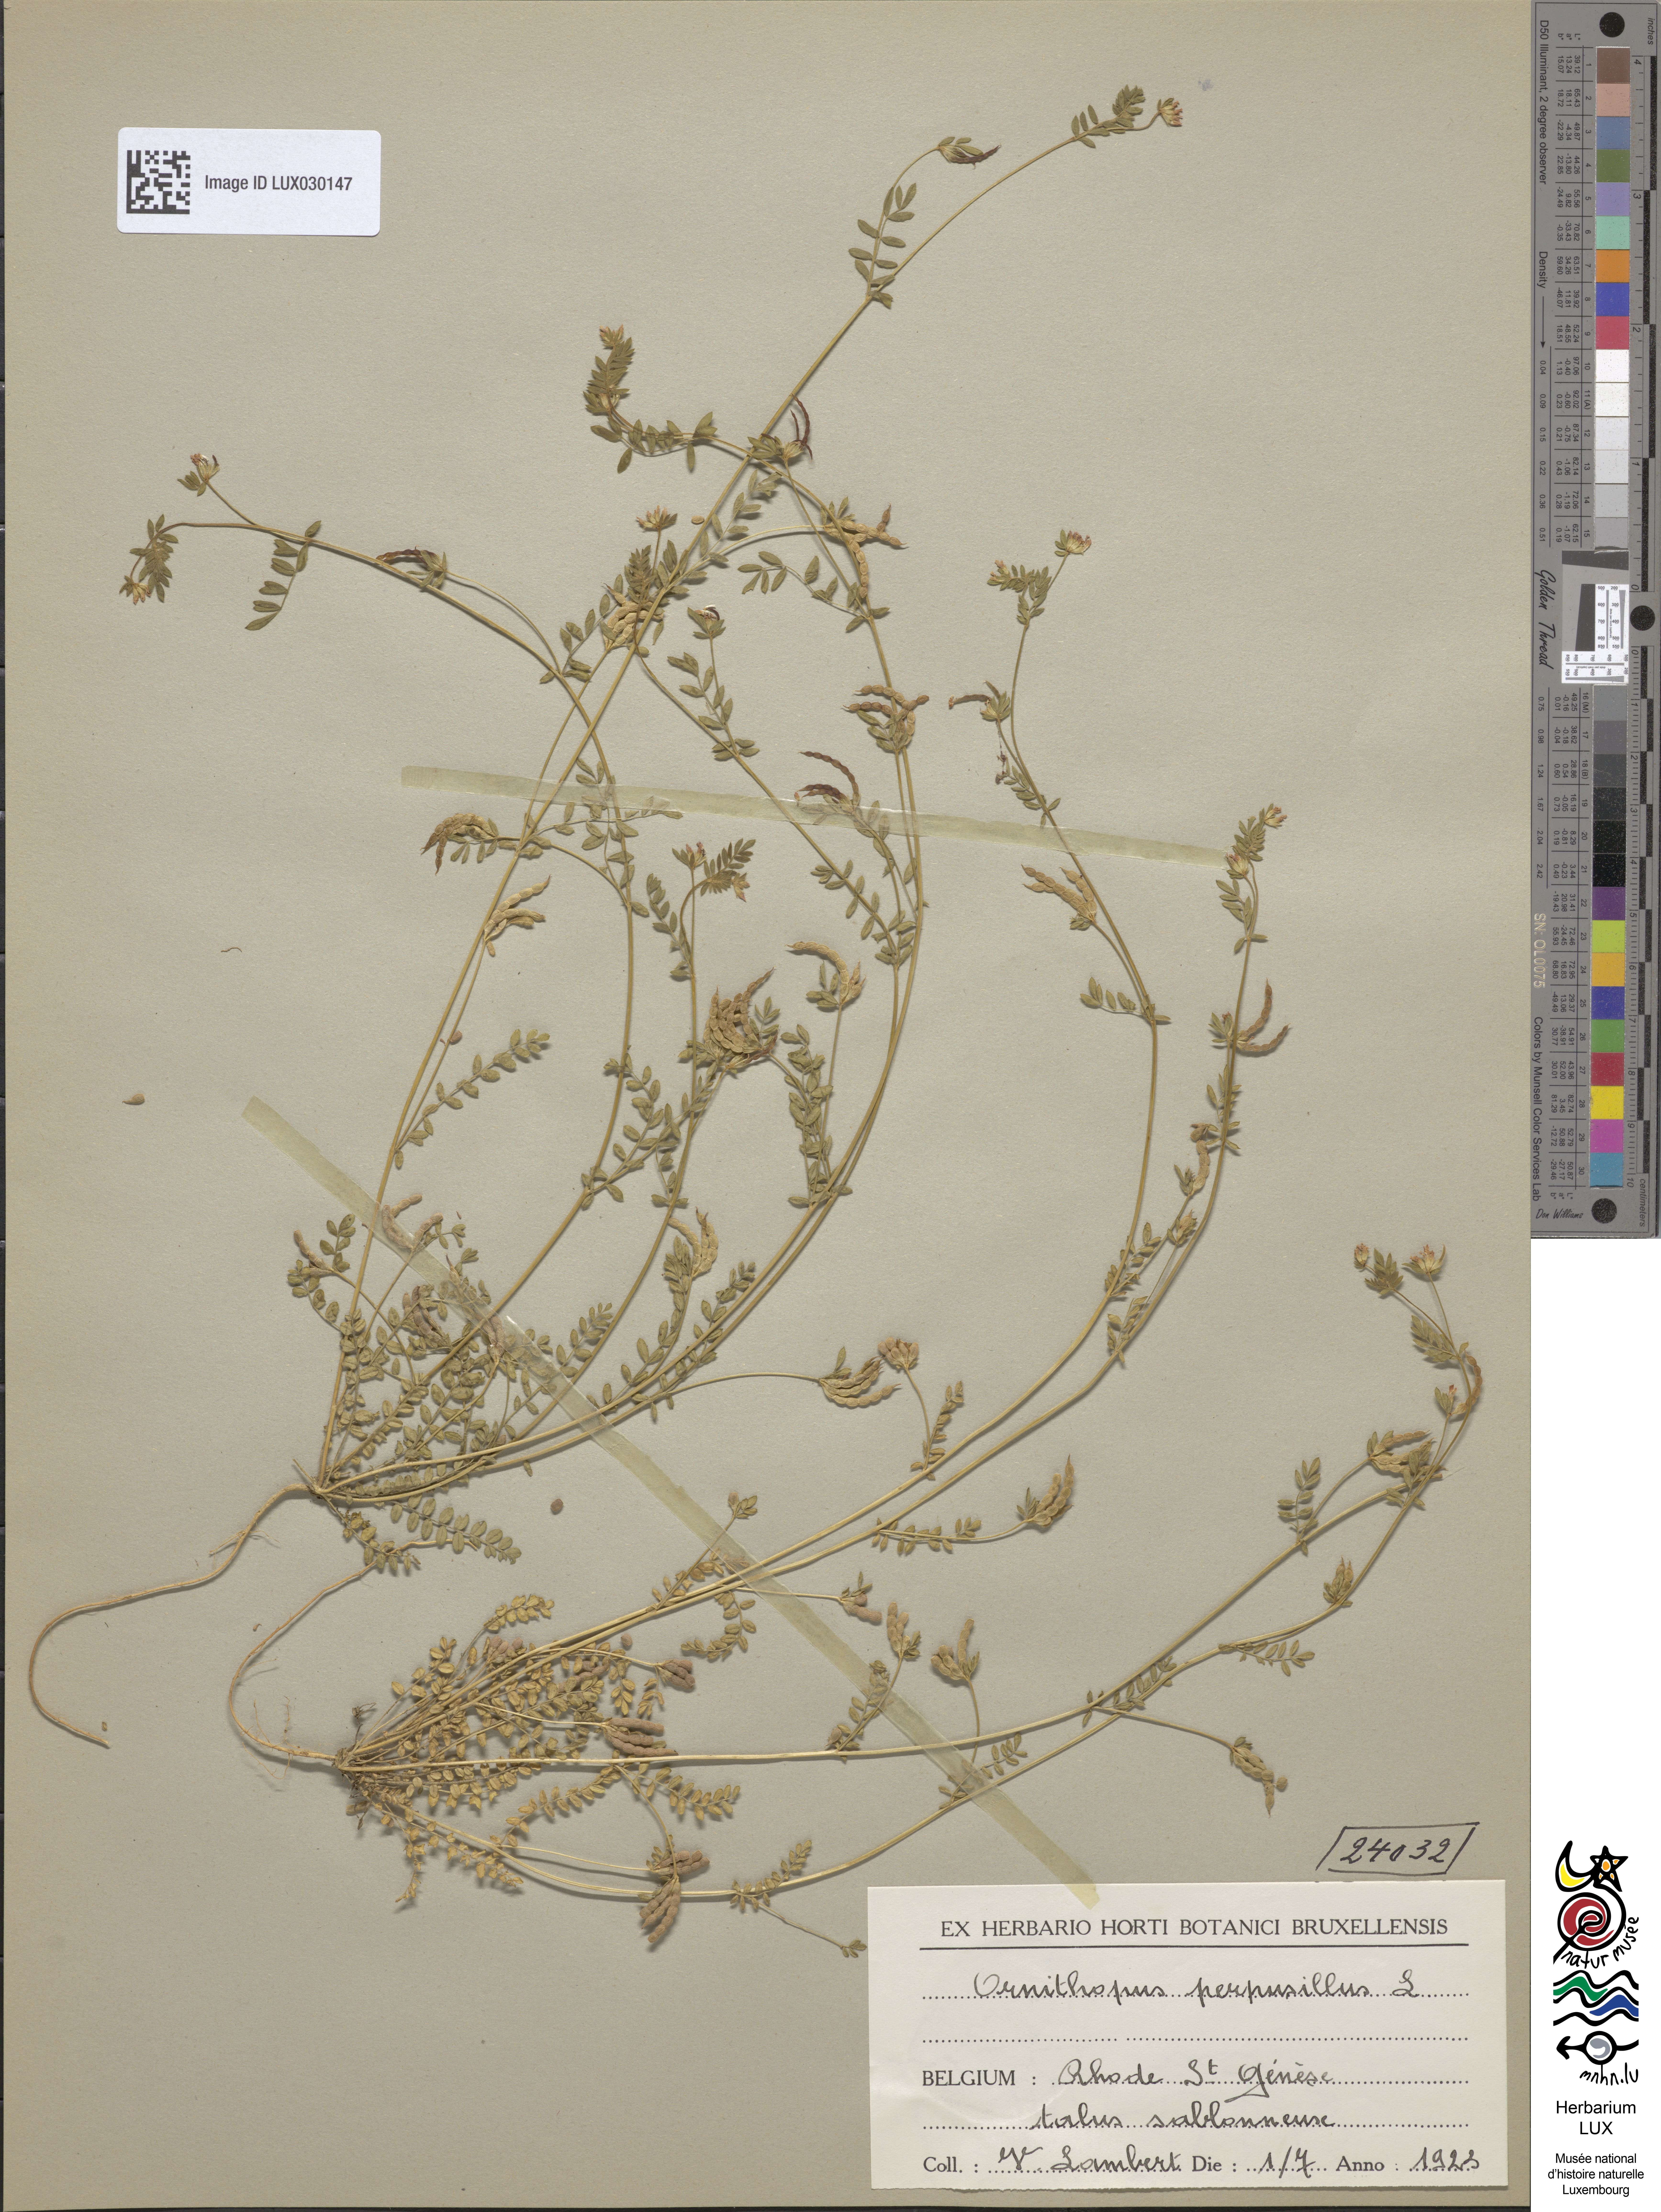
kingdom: Plantae
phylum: Tracheophyta
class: Magnoliopsida
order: Fabales
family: Fabaceae
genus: Ornithopus
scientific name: Ornithopus perpusillus
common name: Bird's-foot
